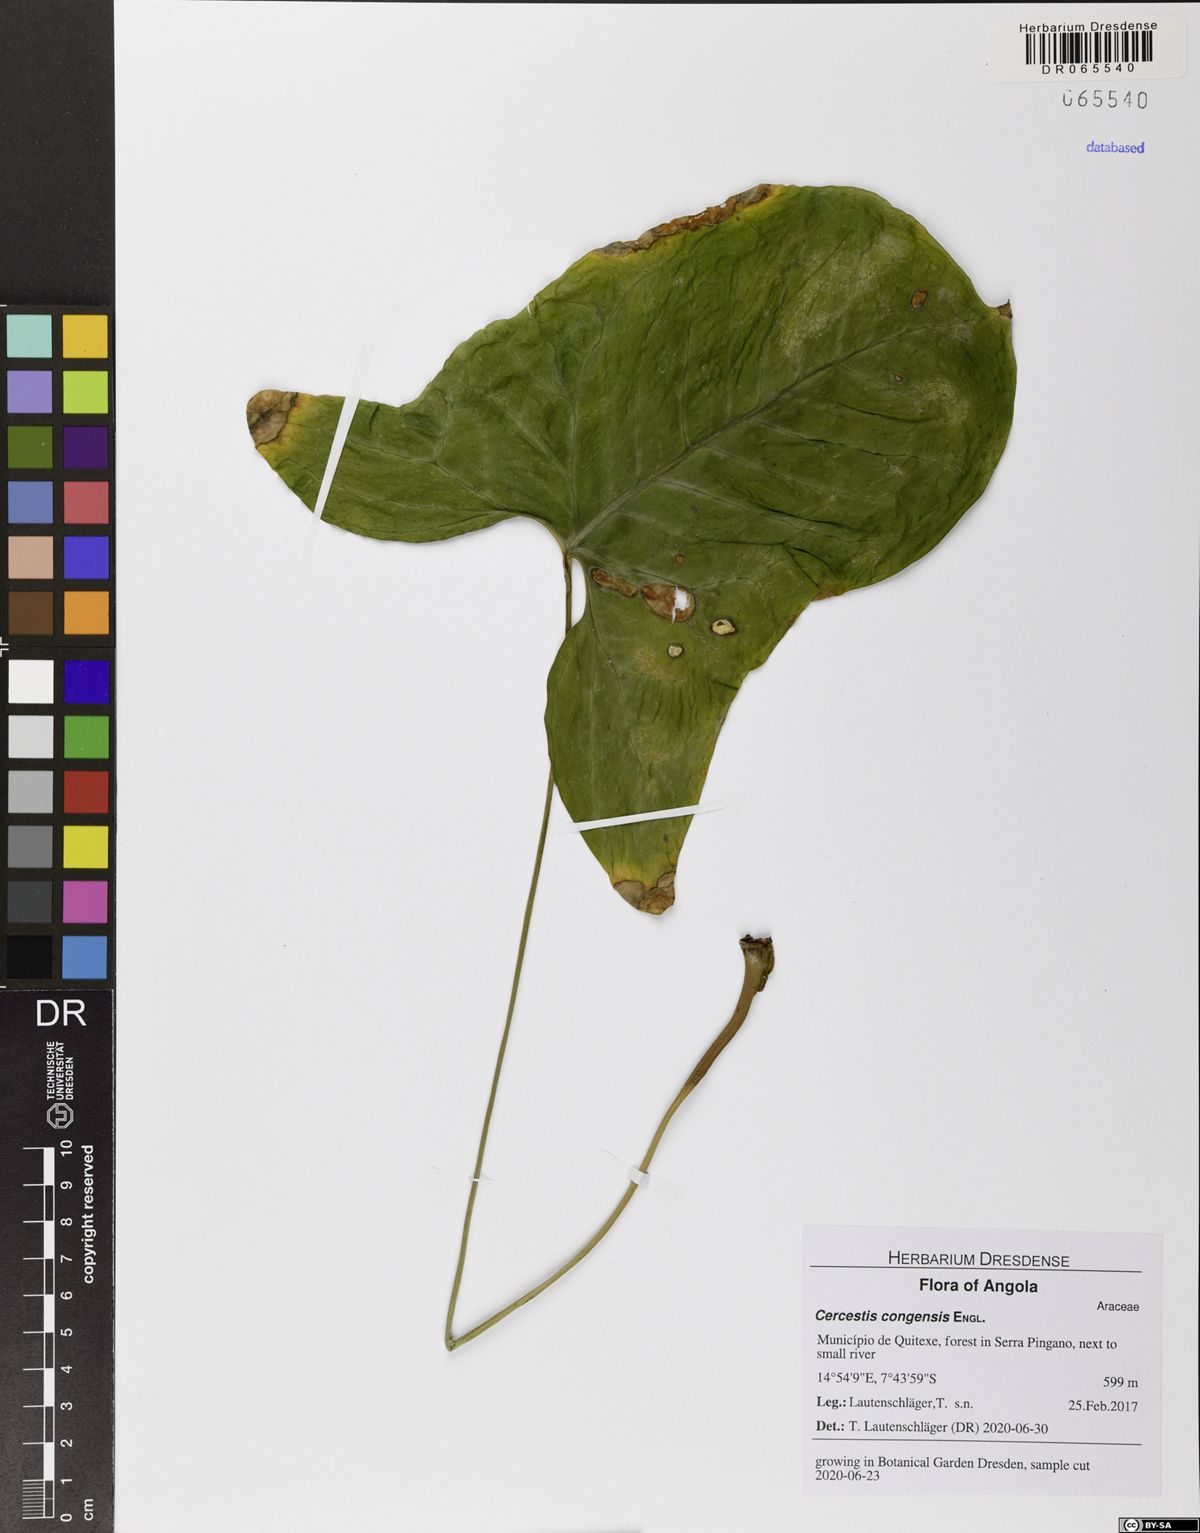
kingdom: Plantae
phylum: Tracheophyta
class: Liliopsida
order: Alismatales
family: Araceae
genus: Cercestis
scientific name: Cercestis congensis
